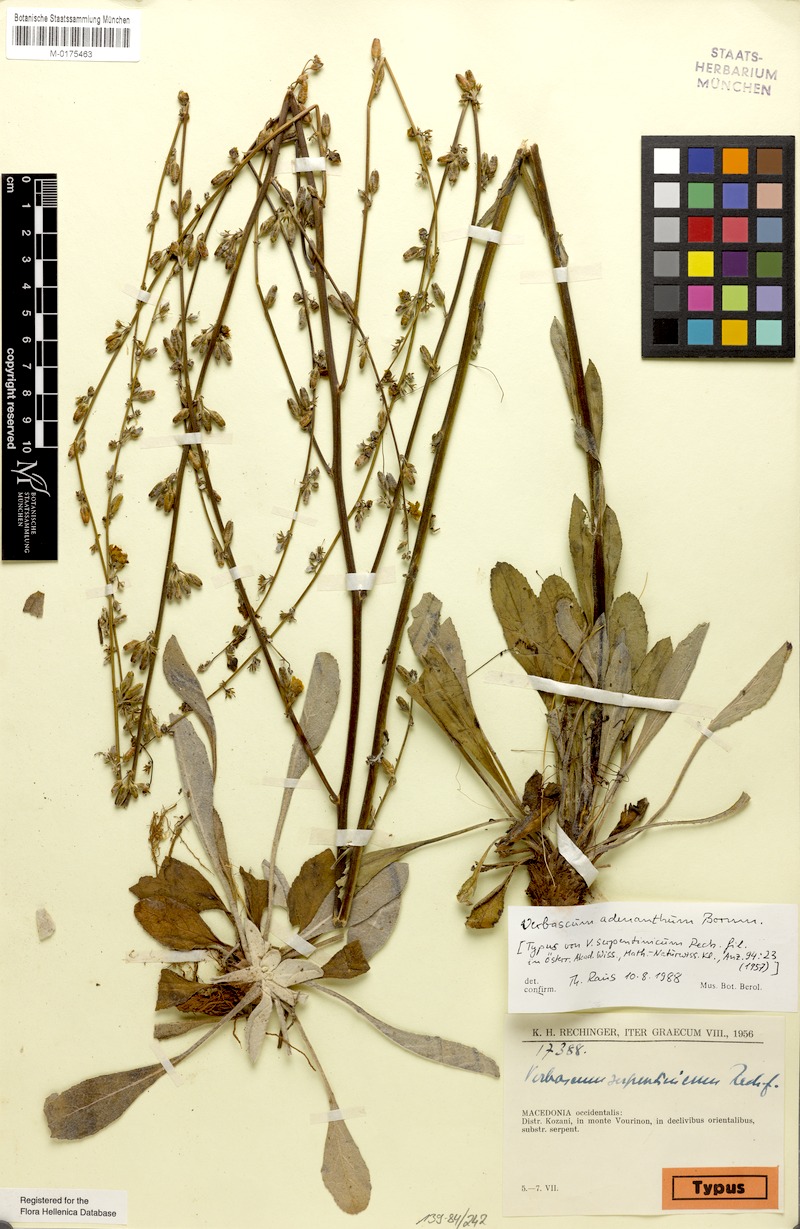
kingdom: Plantae
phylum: Tracheophyta
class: Magnoliopsida
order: Lamiales
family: Scrophulariaceae
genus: Verbascum
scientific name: Verbascum adenanthum
